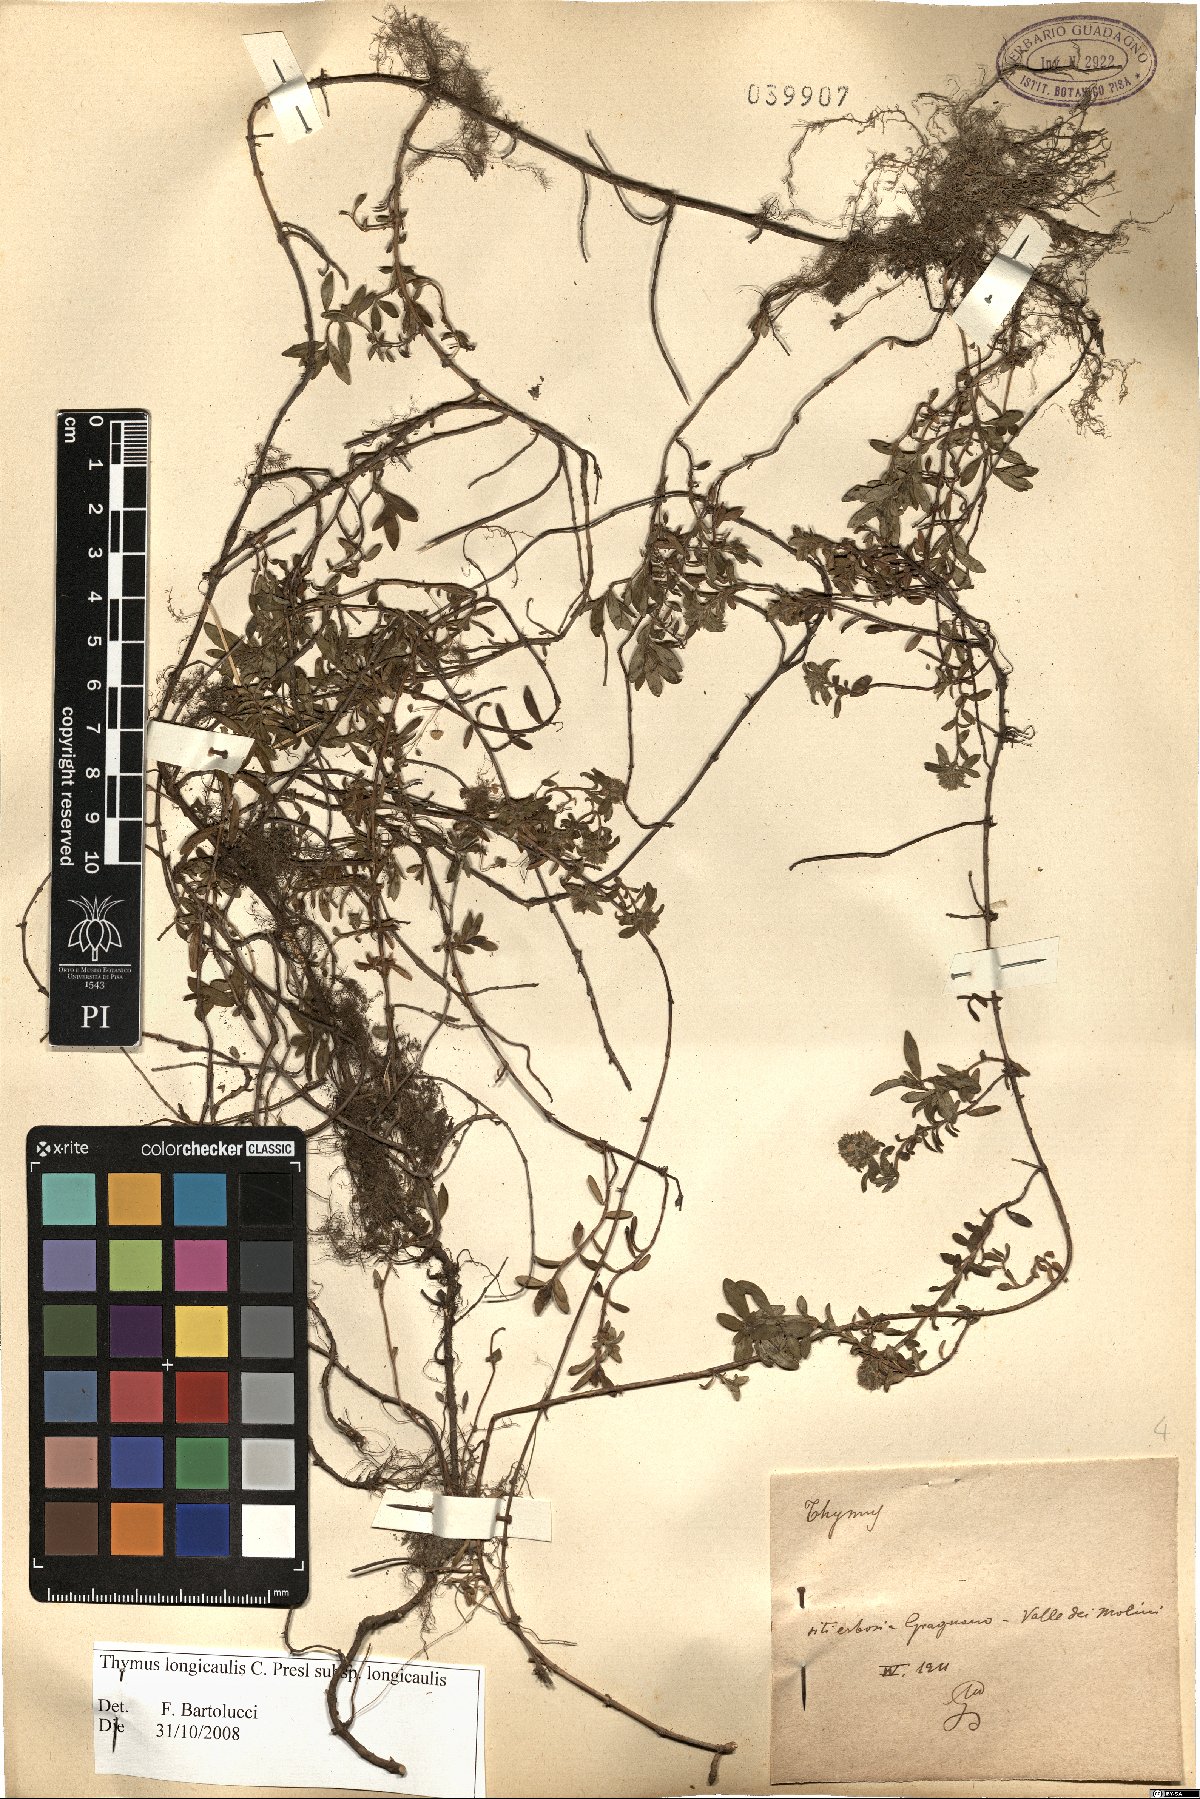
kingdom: Plantae
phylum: Tracheophyta
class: Magnoliopsida
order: Lamiales
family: Lamiaceae
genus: Thymus
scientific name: Thymus longicaulis
